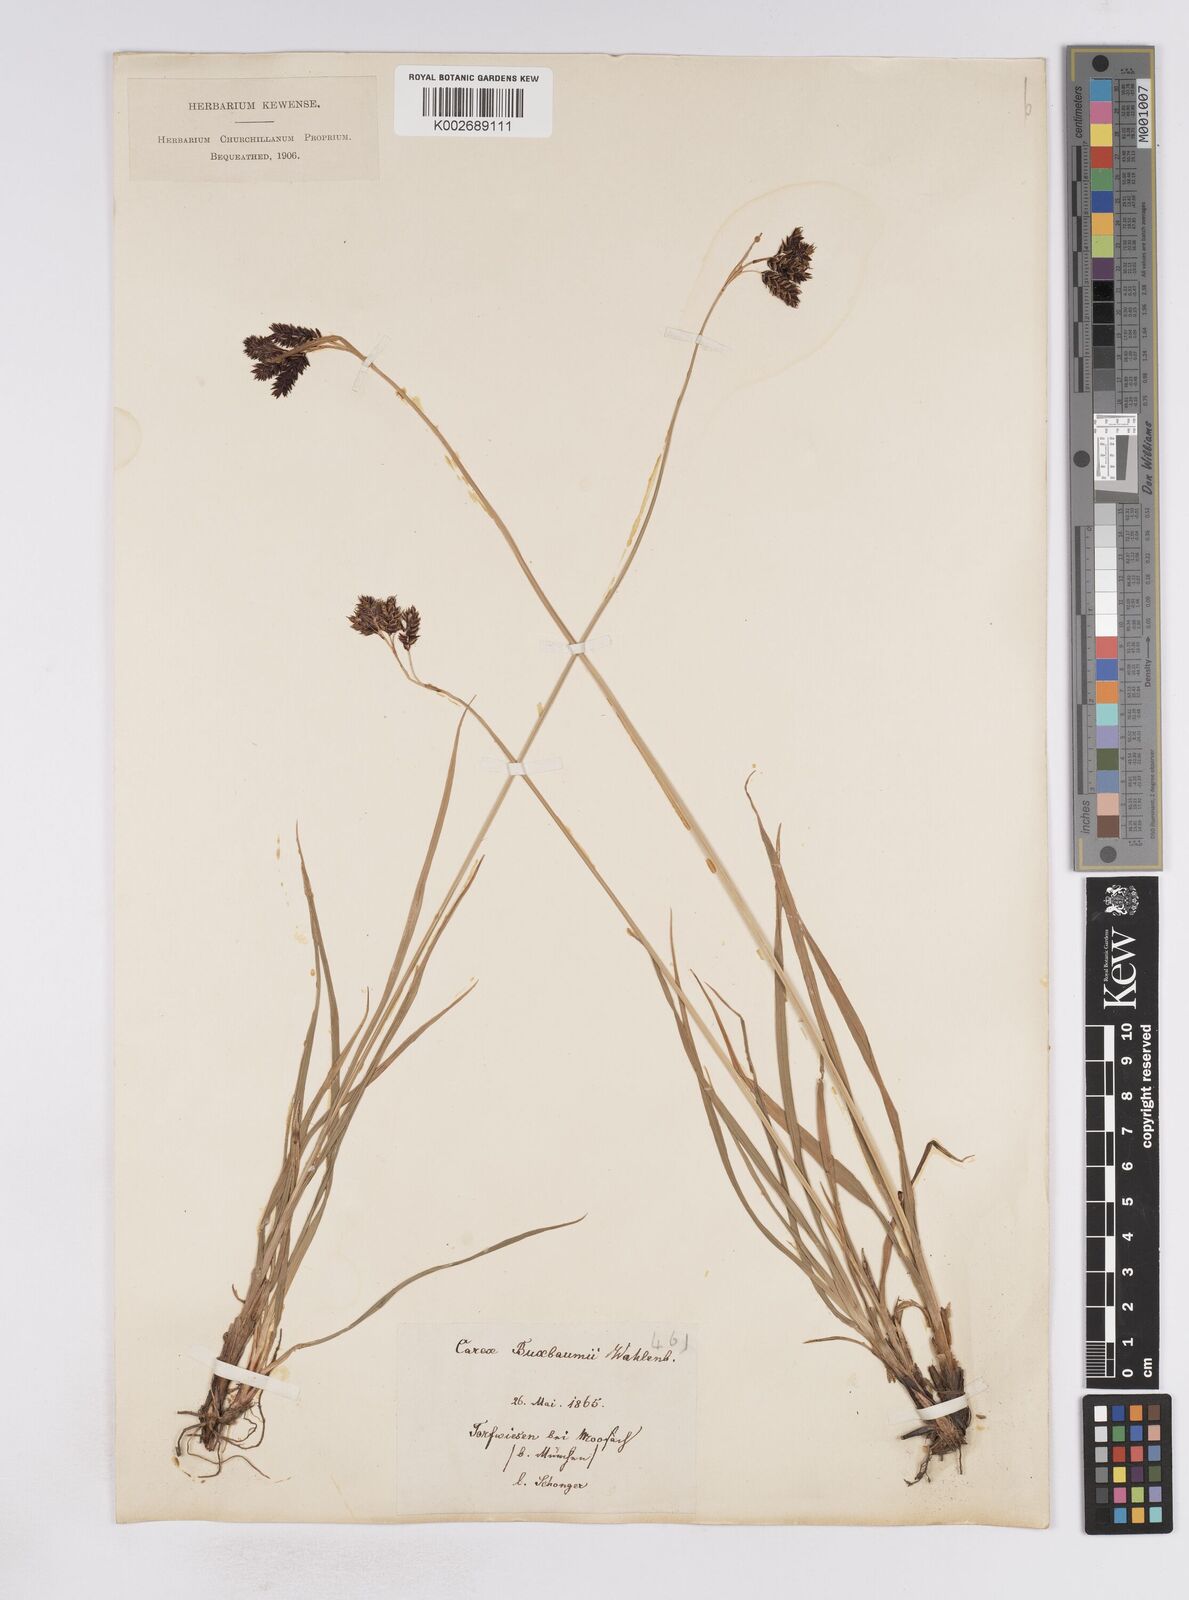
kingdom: Plantae
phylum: Tracheophyta
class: Liliopsida
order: Poales
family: Cyperaceae
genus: Carex
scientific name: Carex atrata
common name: Black alpine sedge
